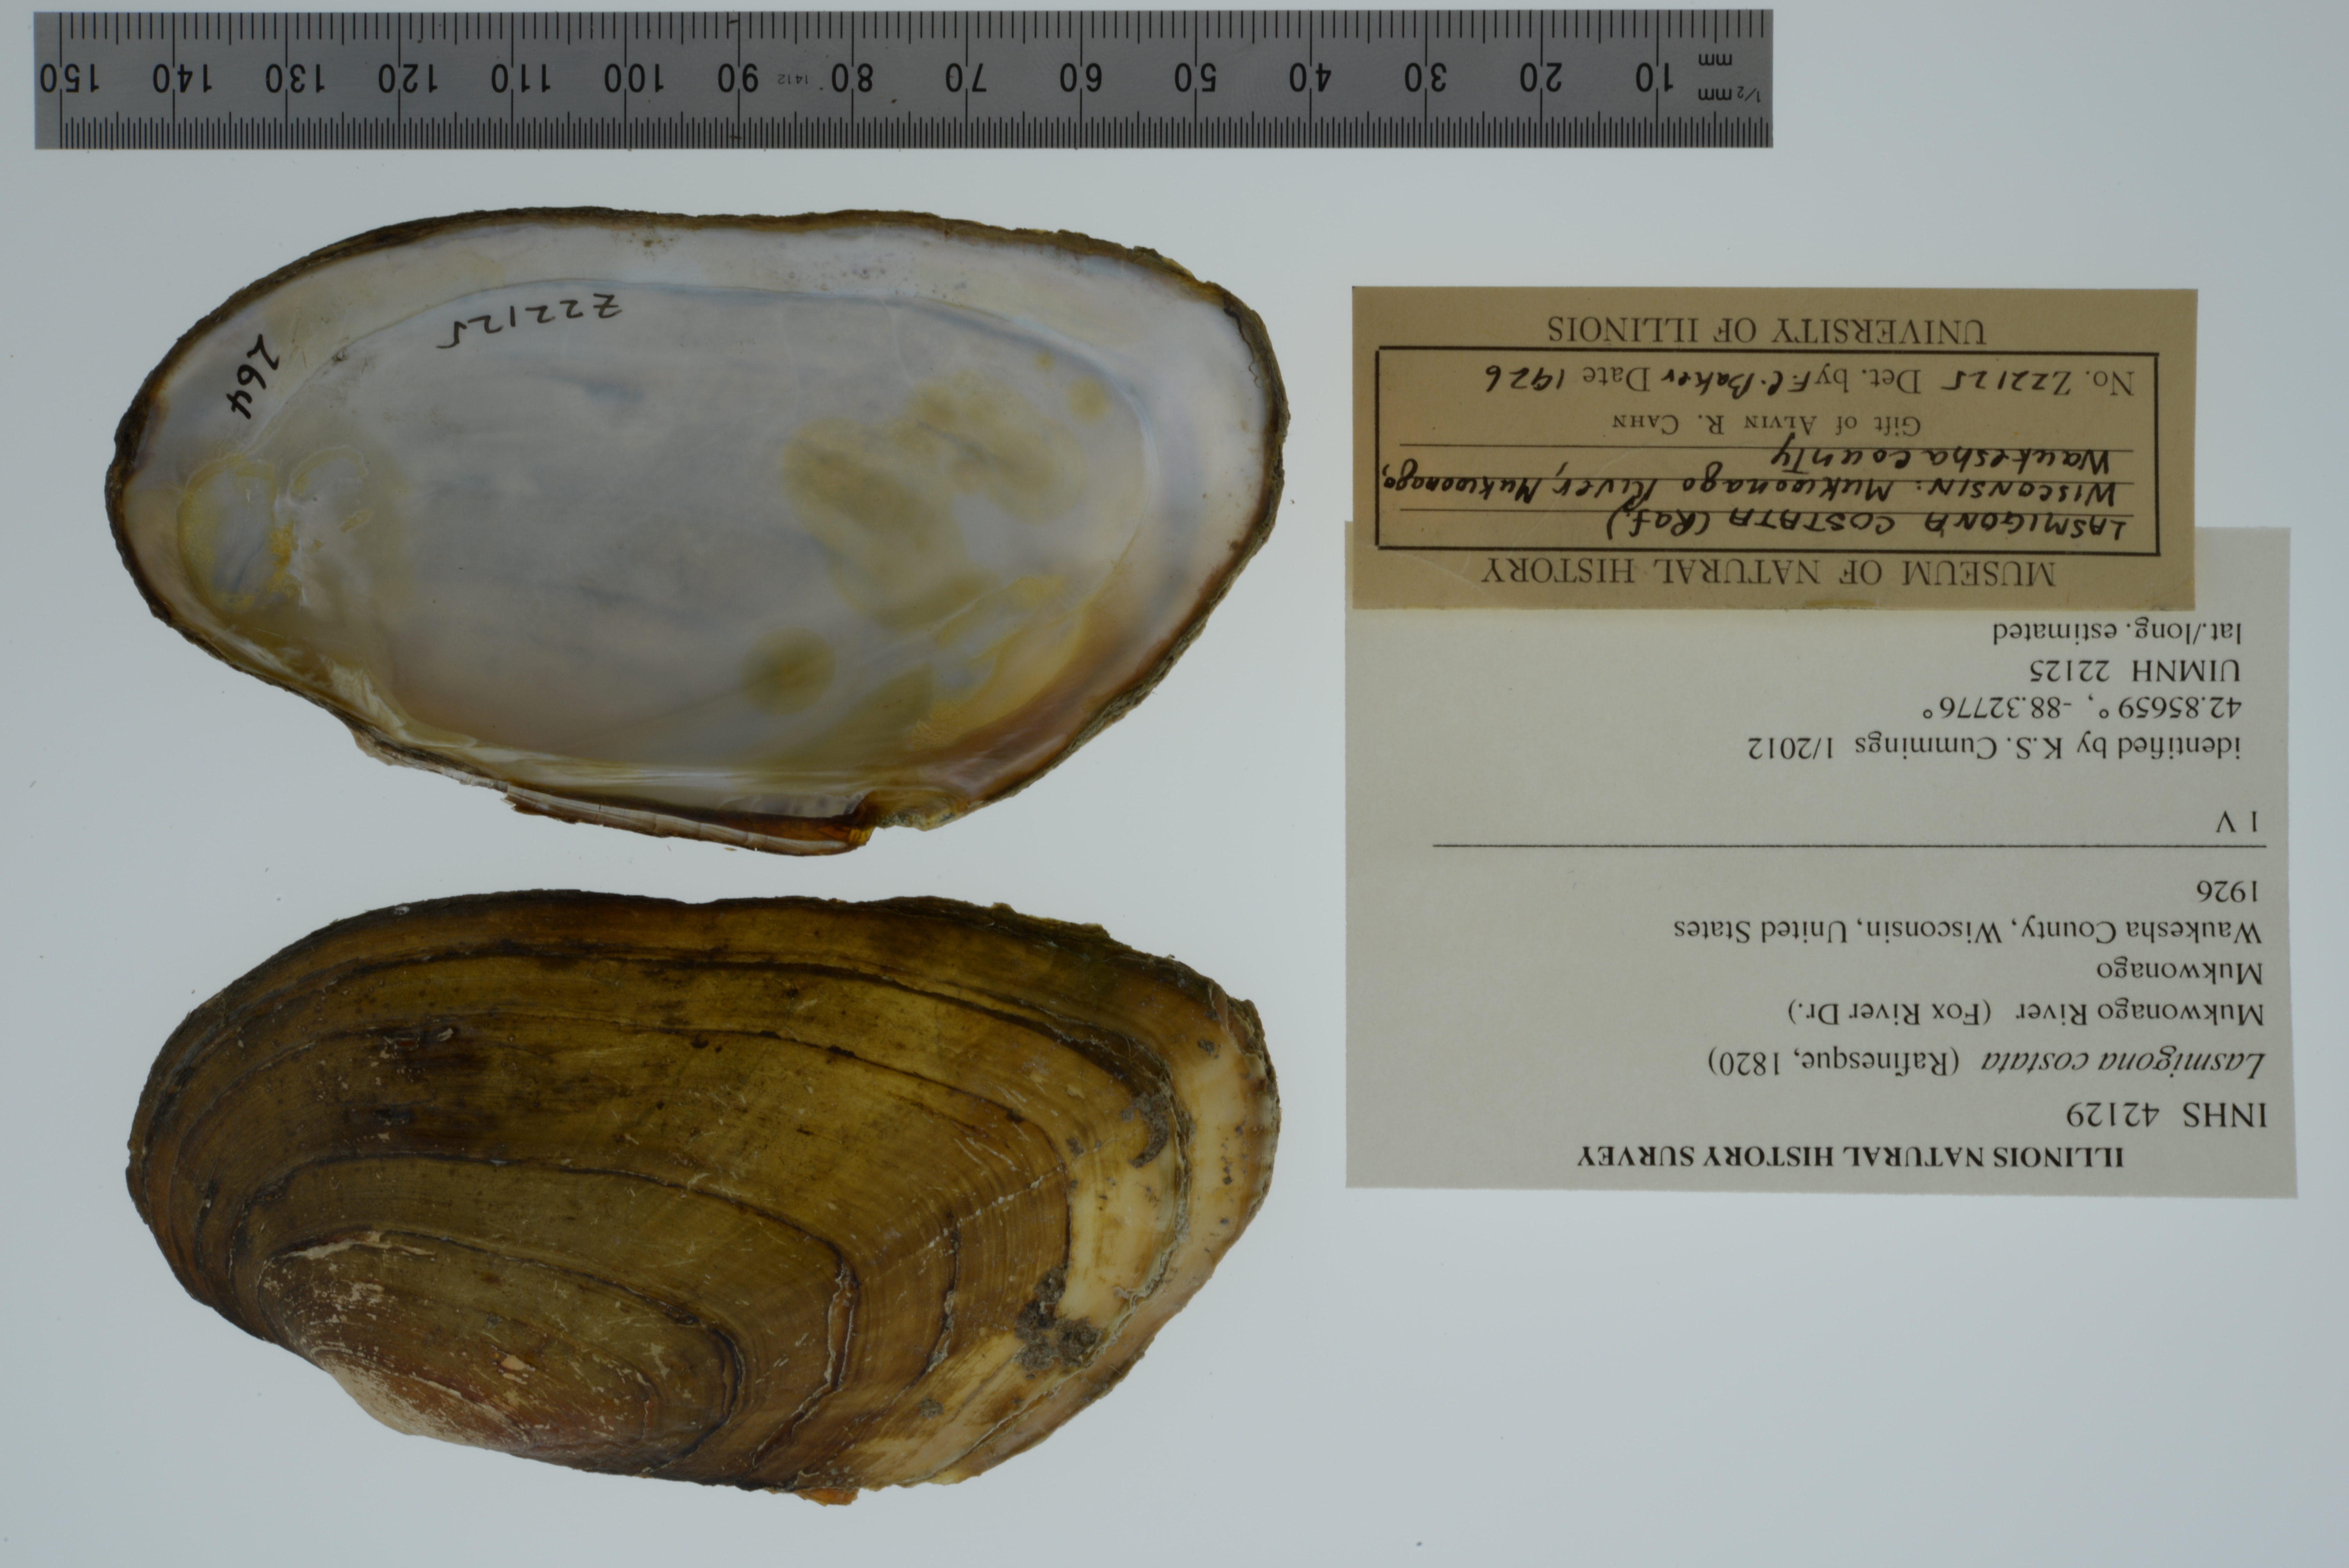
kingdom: Animalia
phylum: Mollusca
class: Bivalvia
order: Unionida
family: Unionidae
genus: Lasmigona
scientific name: Lasmigona costata
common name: Flutedshell
